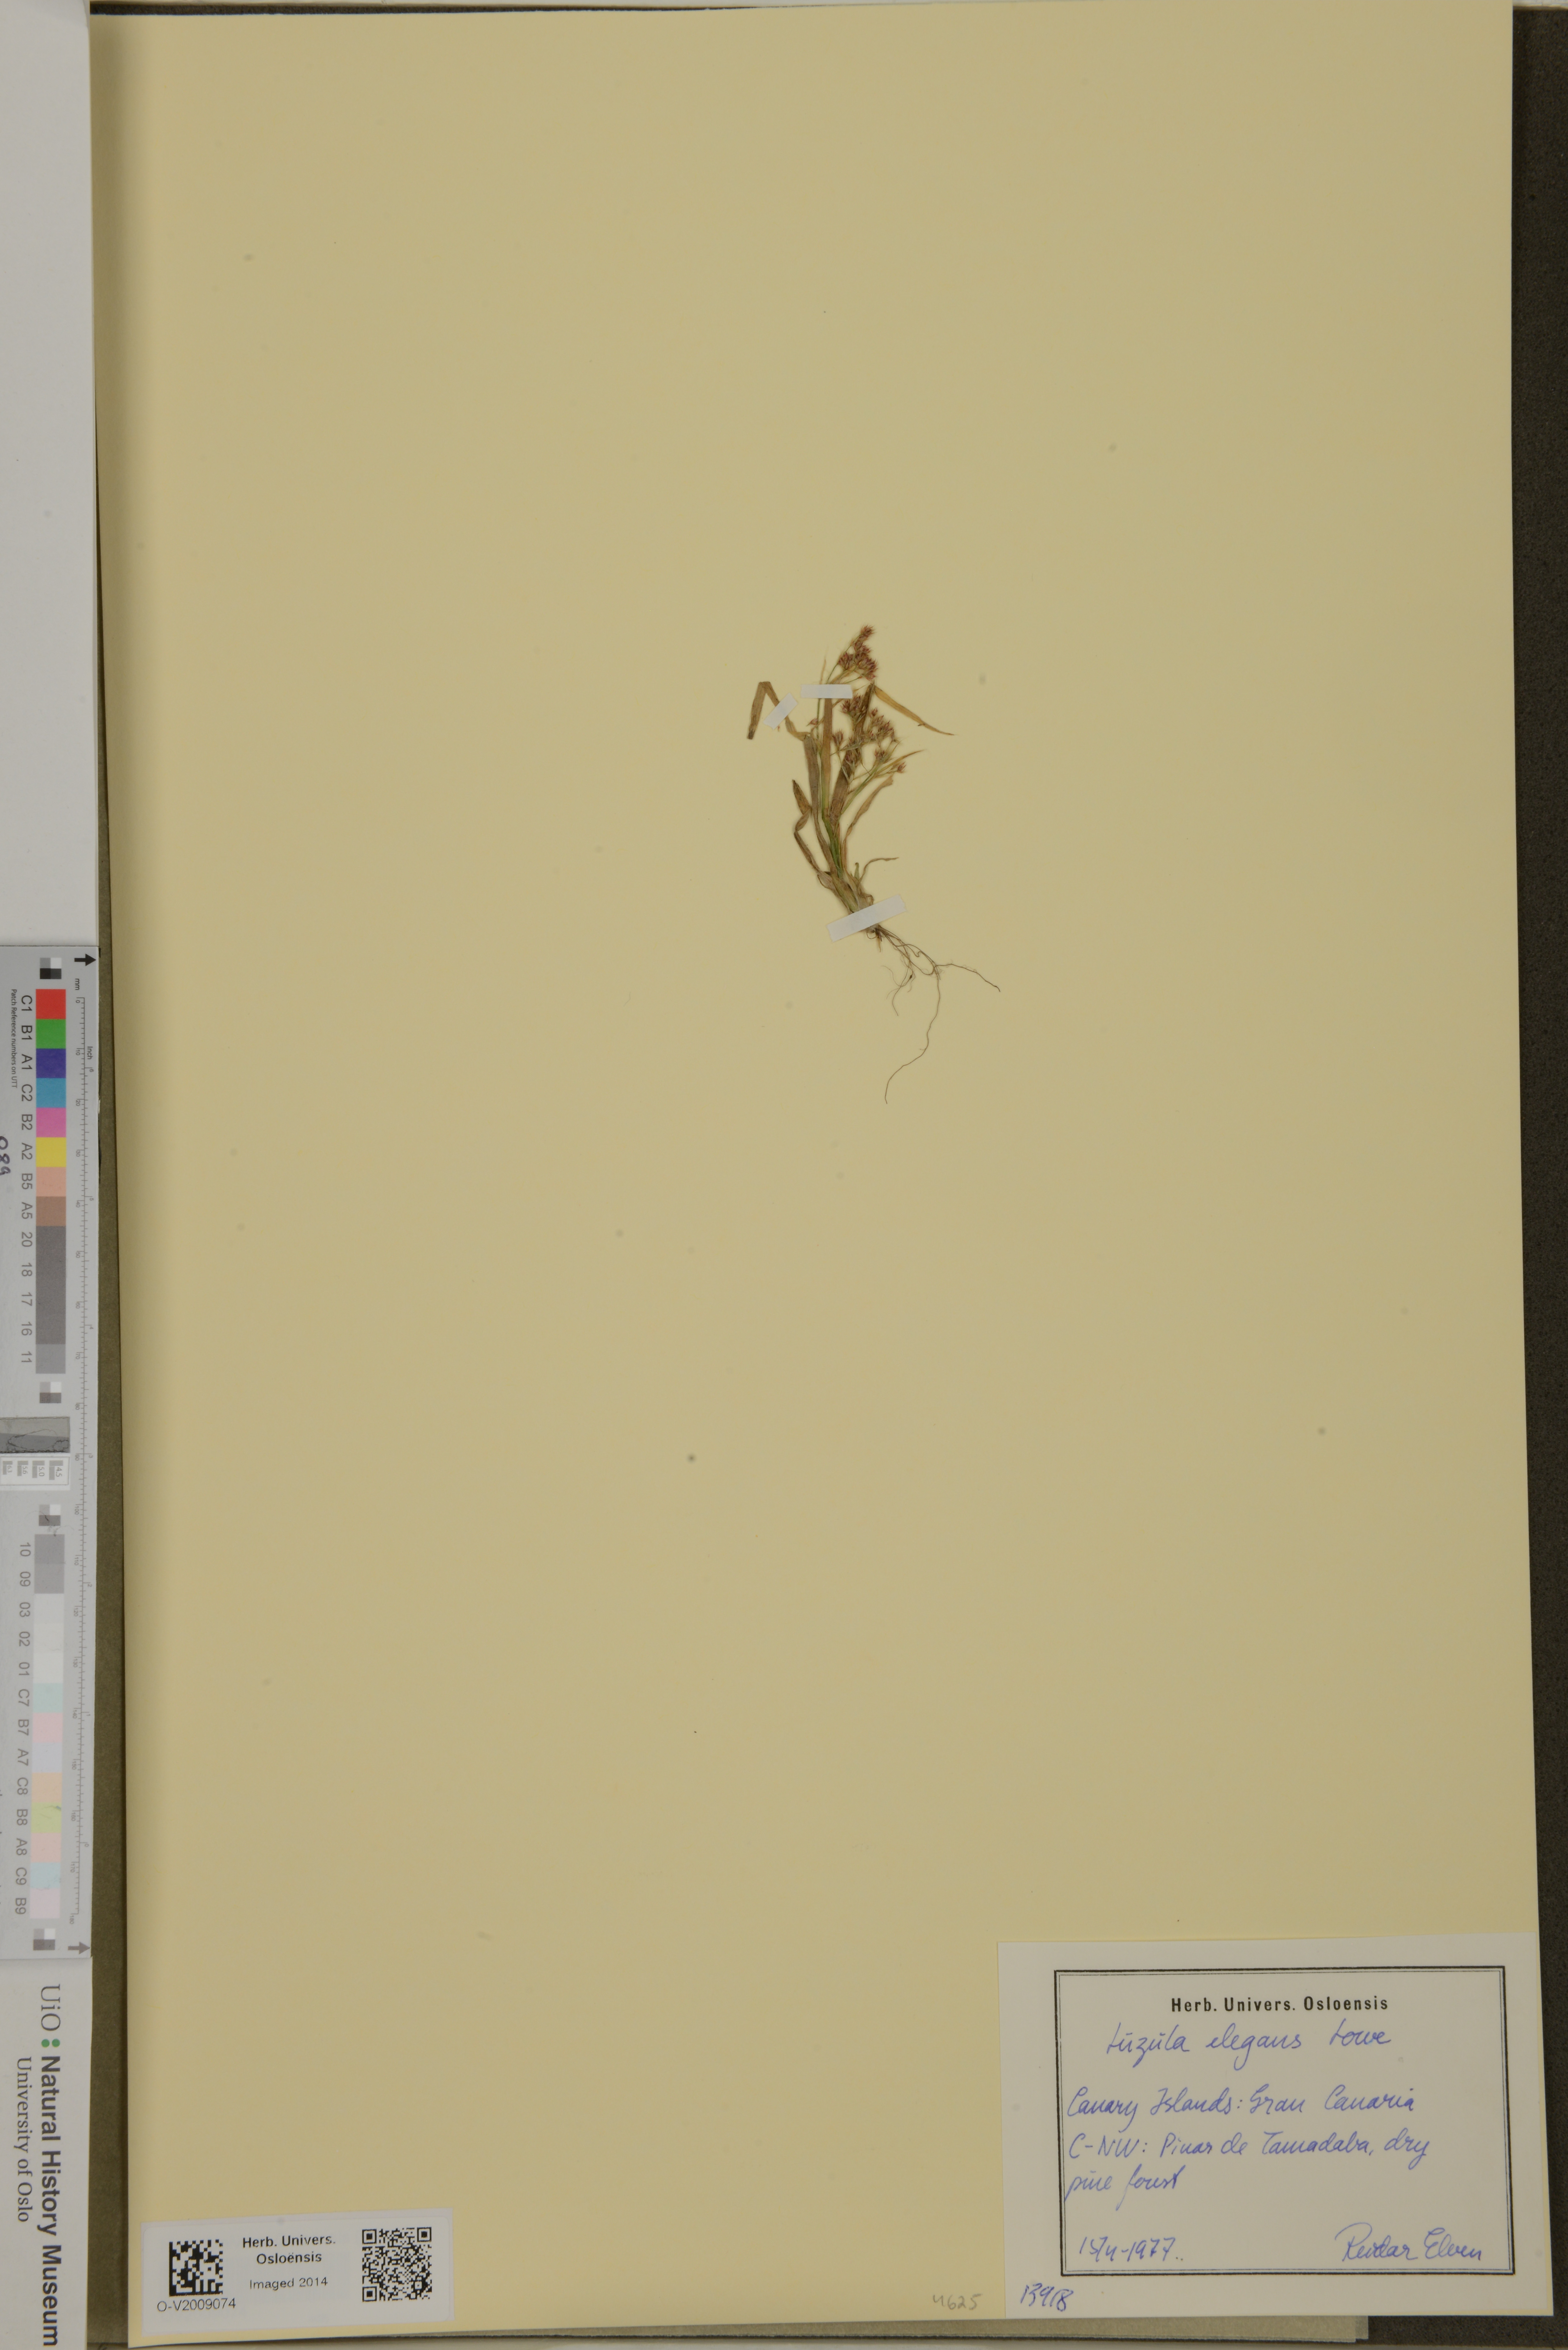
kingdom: Plantae
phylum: Tracheophyta
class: Liliopsida
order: Poales
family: Juncaceae
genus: Luzula
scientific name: Luzula elegans
